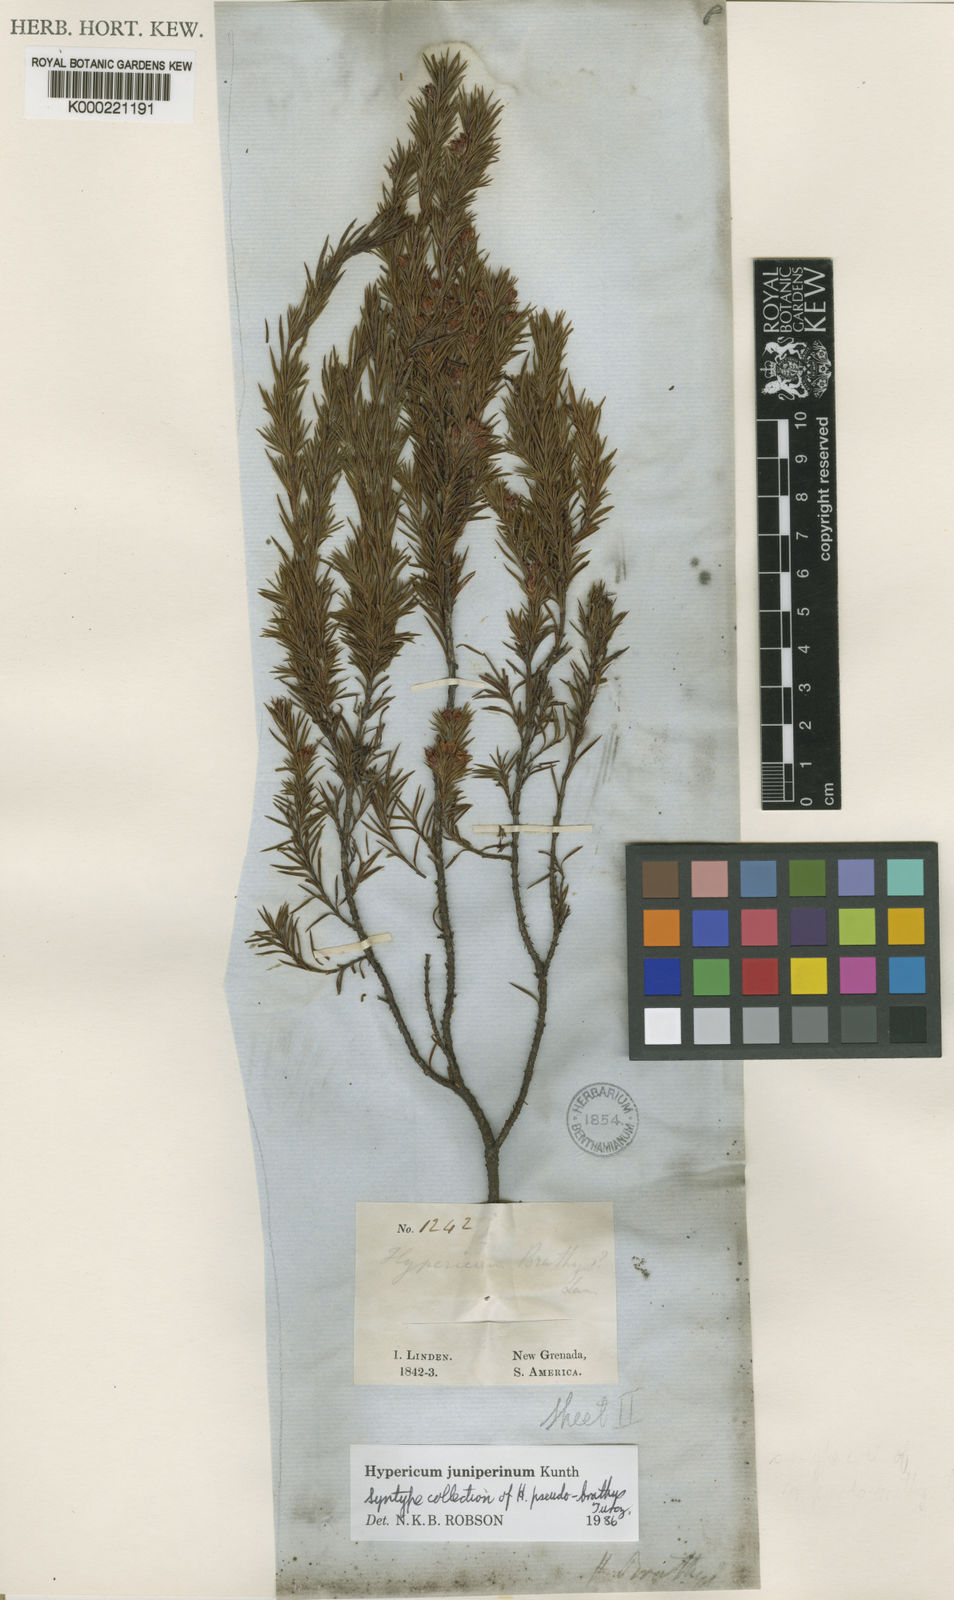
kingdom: Plantae
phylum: Tracheophyta
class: Magnoliopsida
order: Malpighiales
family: Hypericaceae
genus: Hypericum
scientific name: Hypericum juniperinum
